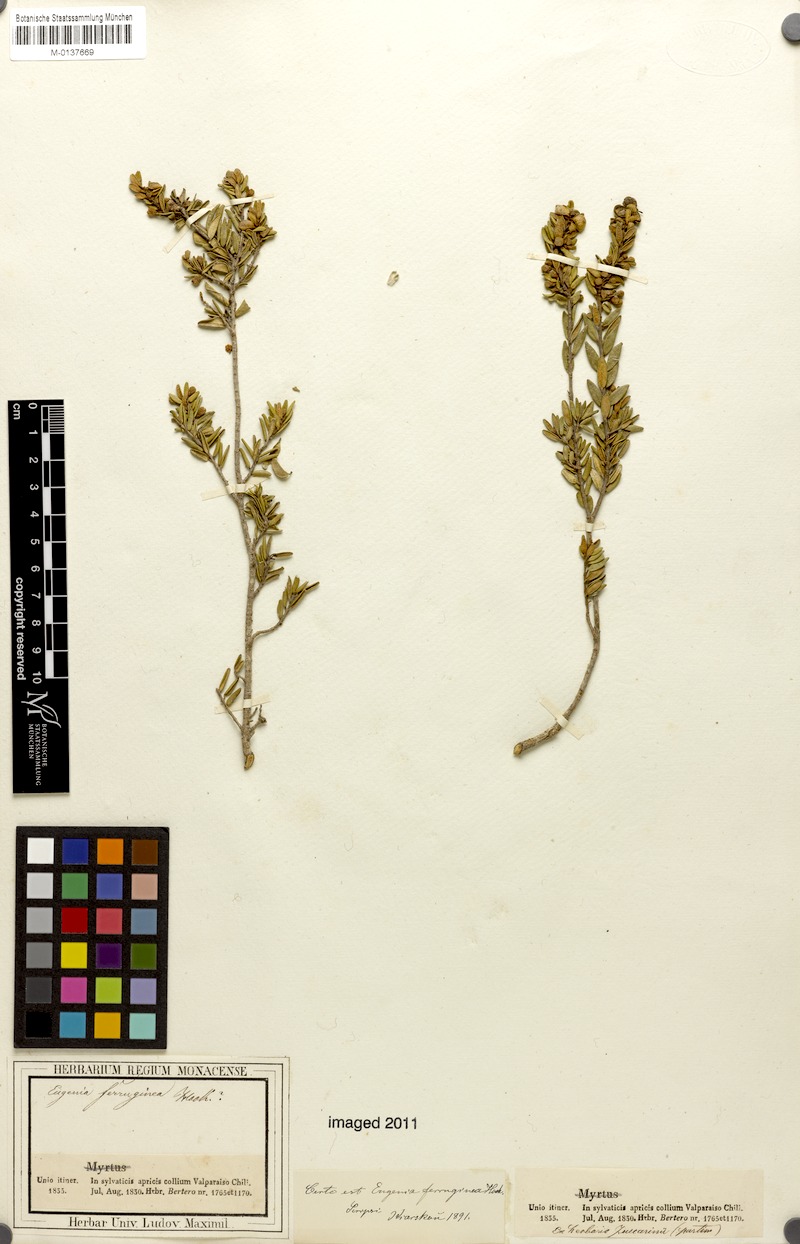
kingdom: Plantae
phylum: Tracheophyta
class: Magnoliopsida
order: Myrtales
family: Myrtaceae
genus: Myrceugenia
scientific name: Myrceugenia rufa
